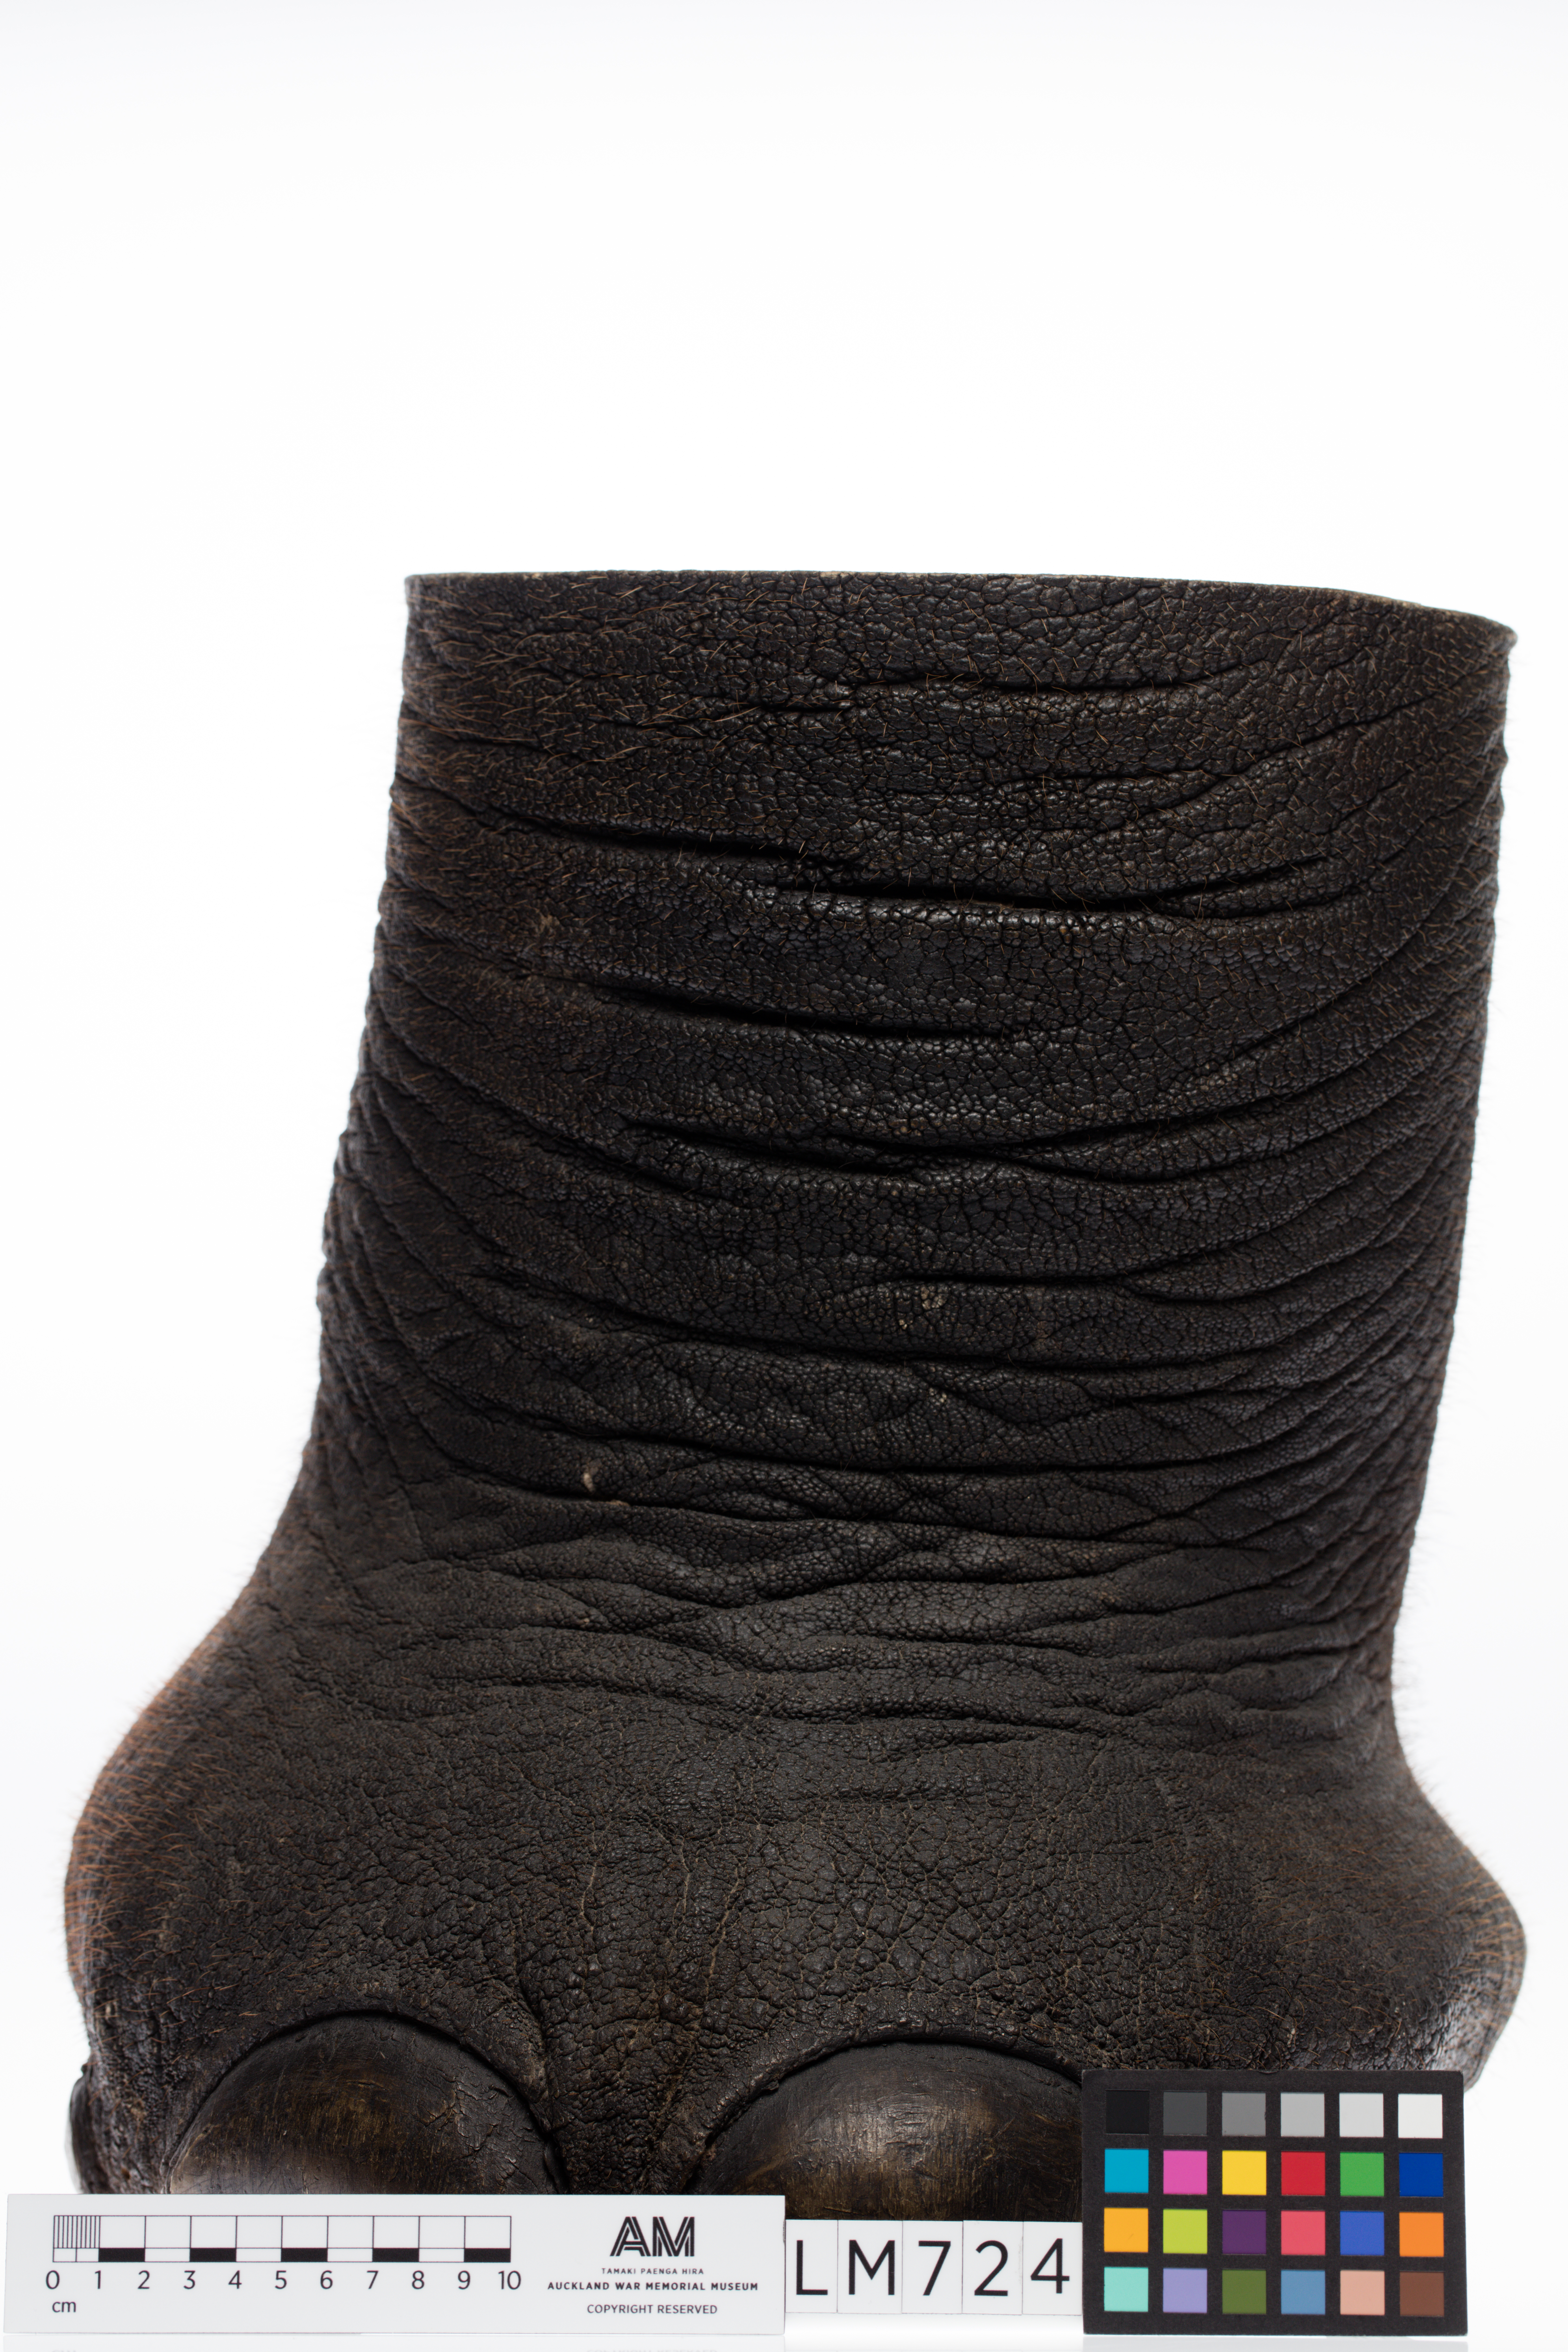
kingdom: Animalia
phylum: Chordata
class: Mammalia
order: Proboscidea
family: Elephantidae
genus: Loxodonta
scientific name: Loxodonta africana
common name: African elephant
